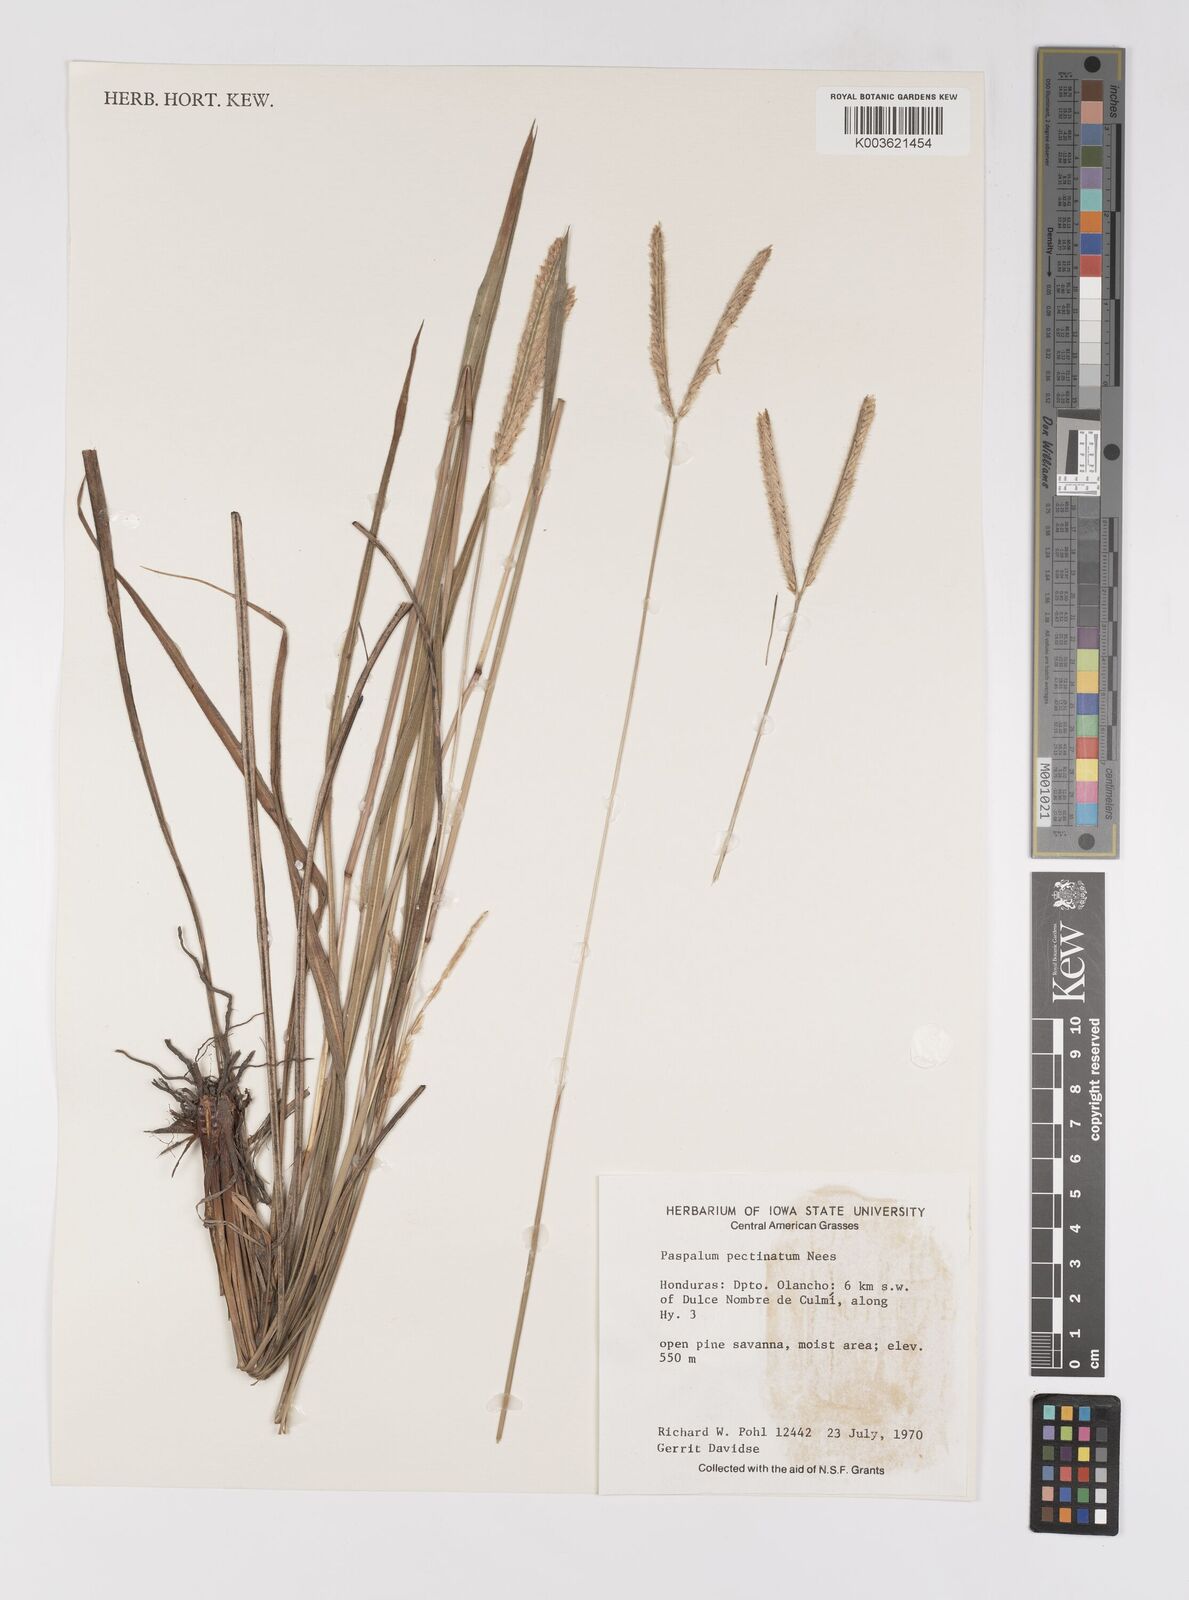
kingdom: Plantae
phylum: Tracheophyta
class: Liliopsida
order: Poales
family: Poaceae
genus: Paspalum
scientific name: Paspalum pectinatum
